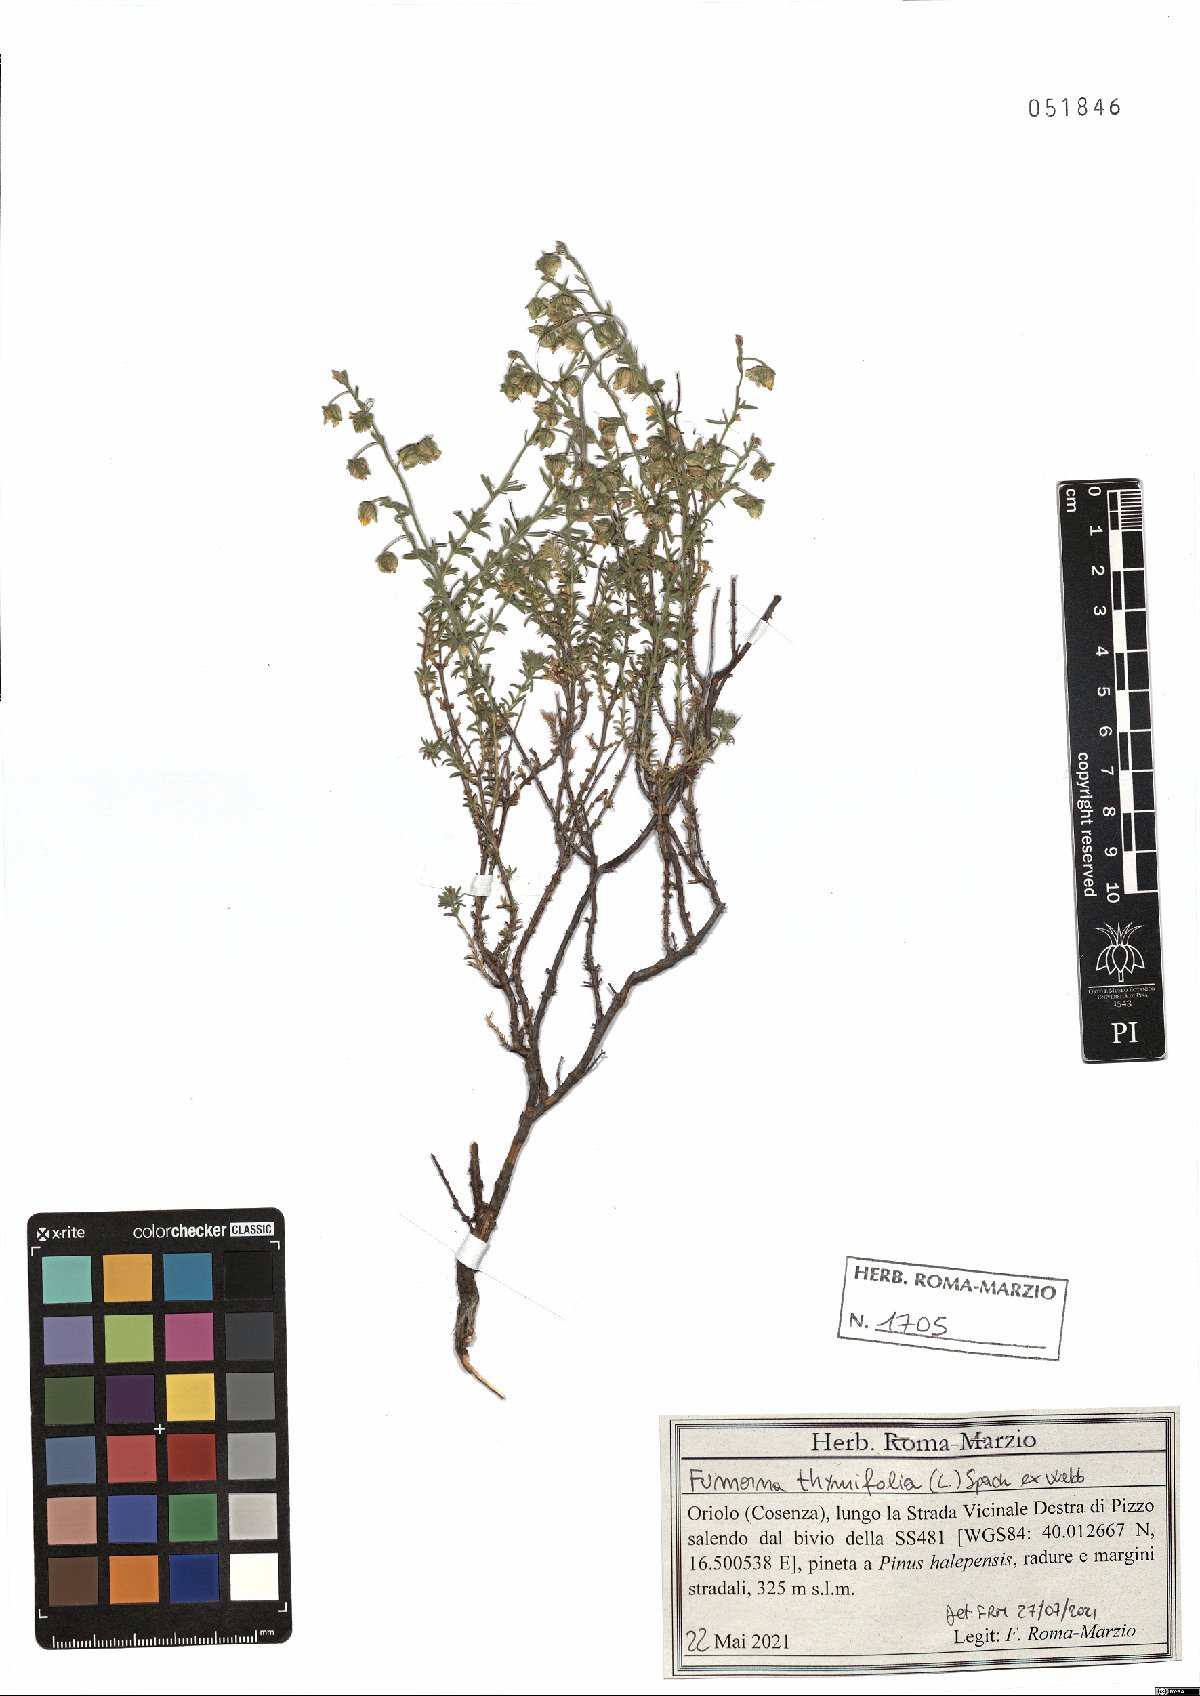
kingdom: Plantae
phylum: Tracheophyta
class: Magnoliopsida
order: Malvales
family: Cistaceae
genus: Fumana
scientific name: Fumana thymifolia
